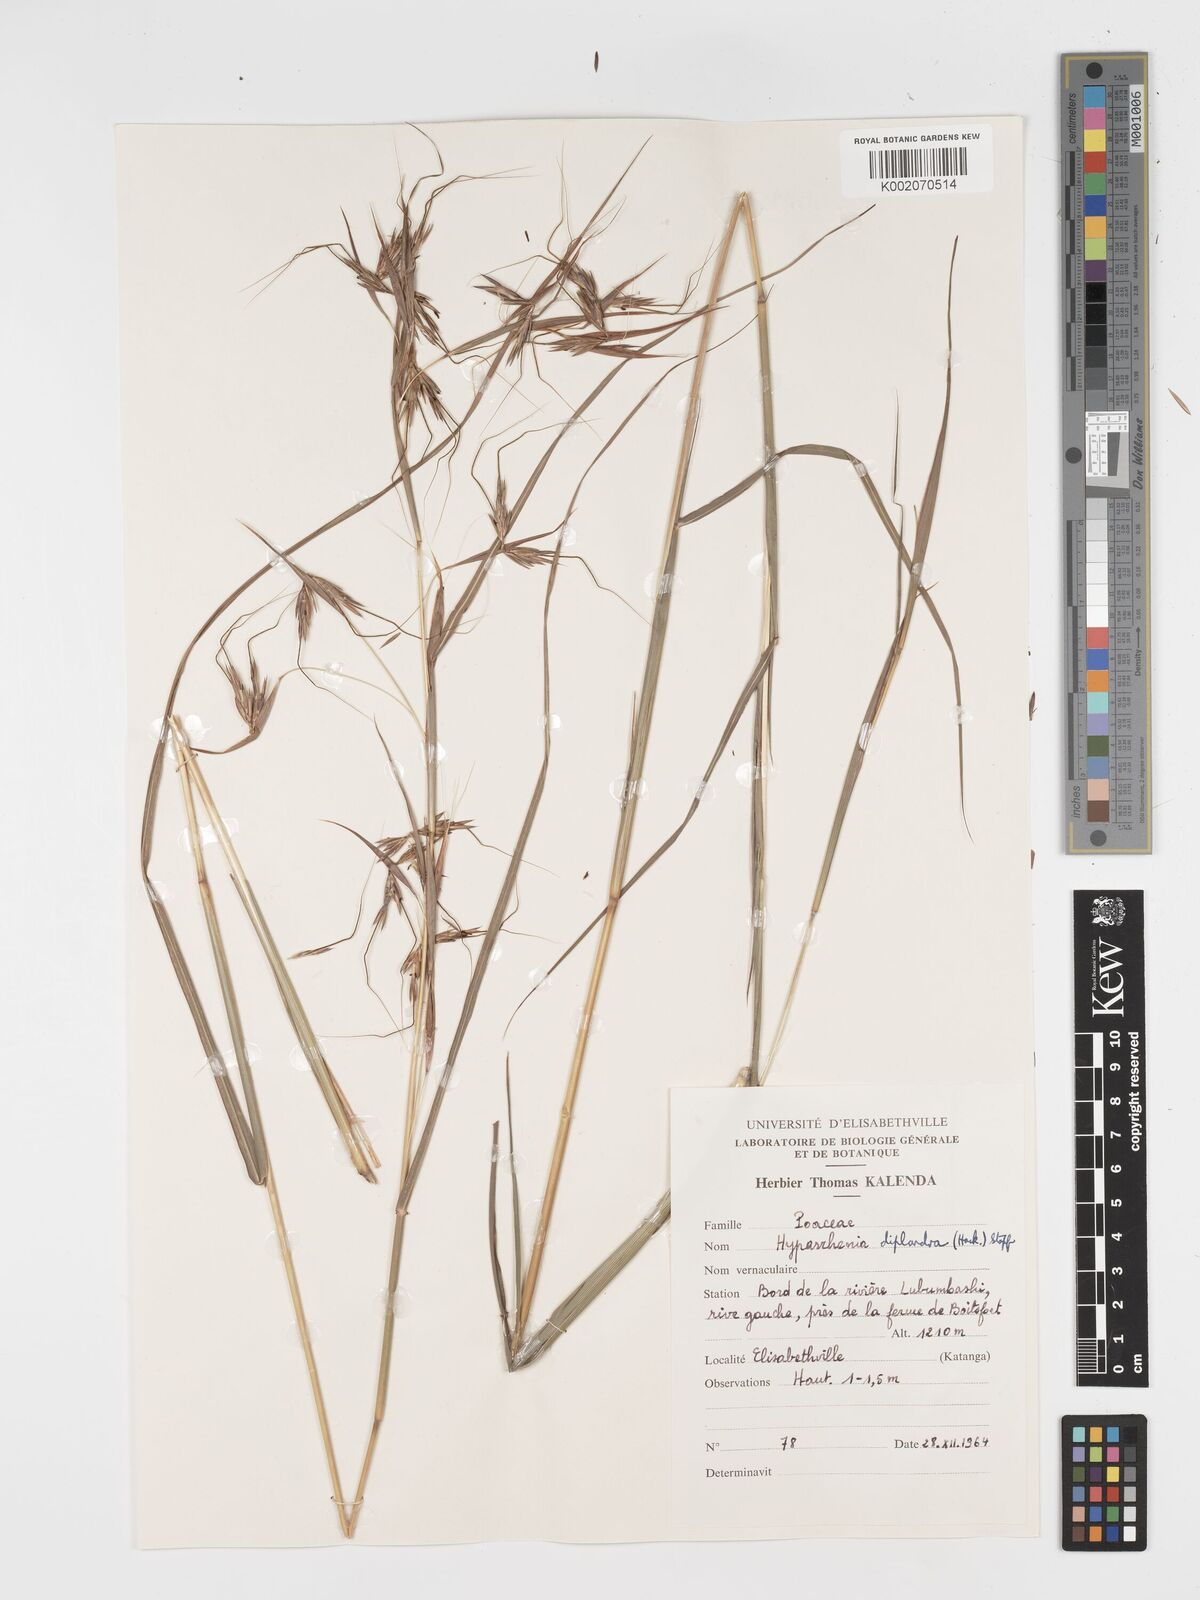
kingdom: Plantae
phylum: Tracheophyta
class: Liliopsida
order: Poales
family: Poaceae
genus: Hyparrhenia
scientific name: Hyparrhenia diplandra
